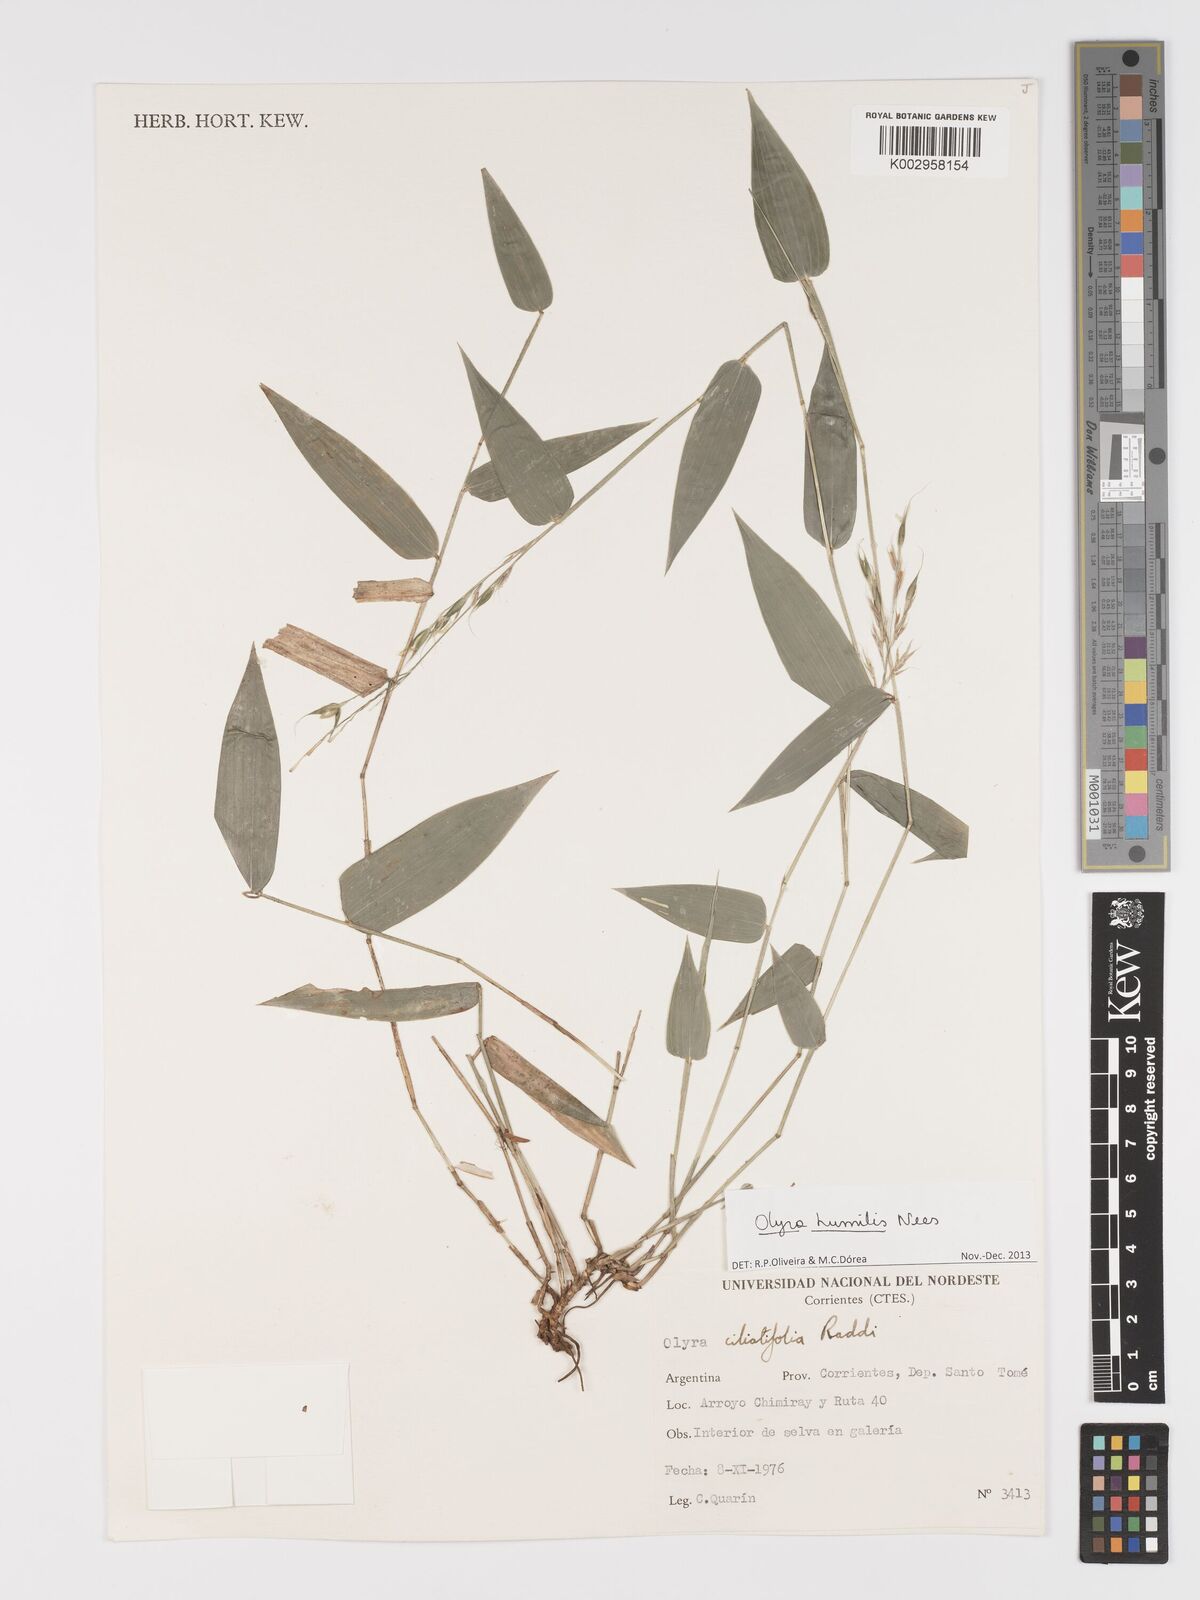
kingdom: Plantae
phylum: Tracheophyta
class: Liliopsida
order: Poales
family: Poaceae
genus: Olyra
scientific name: Olyra humilis
